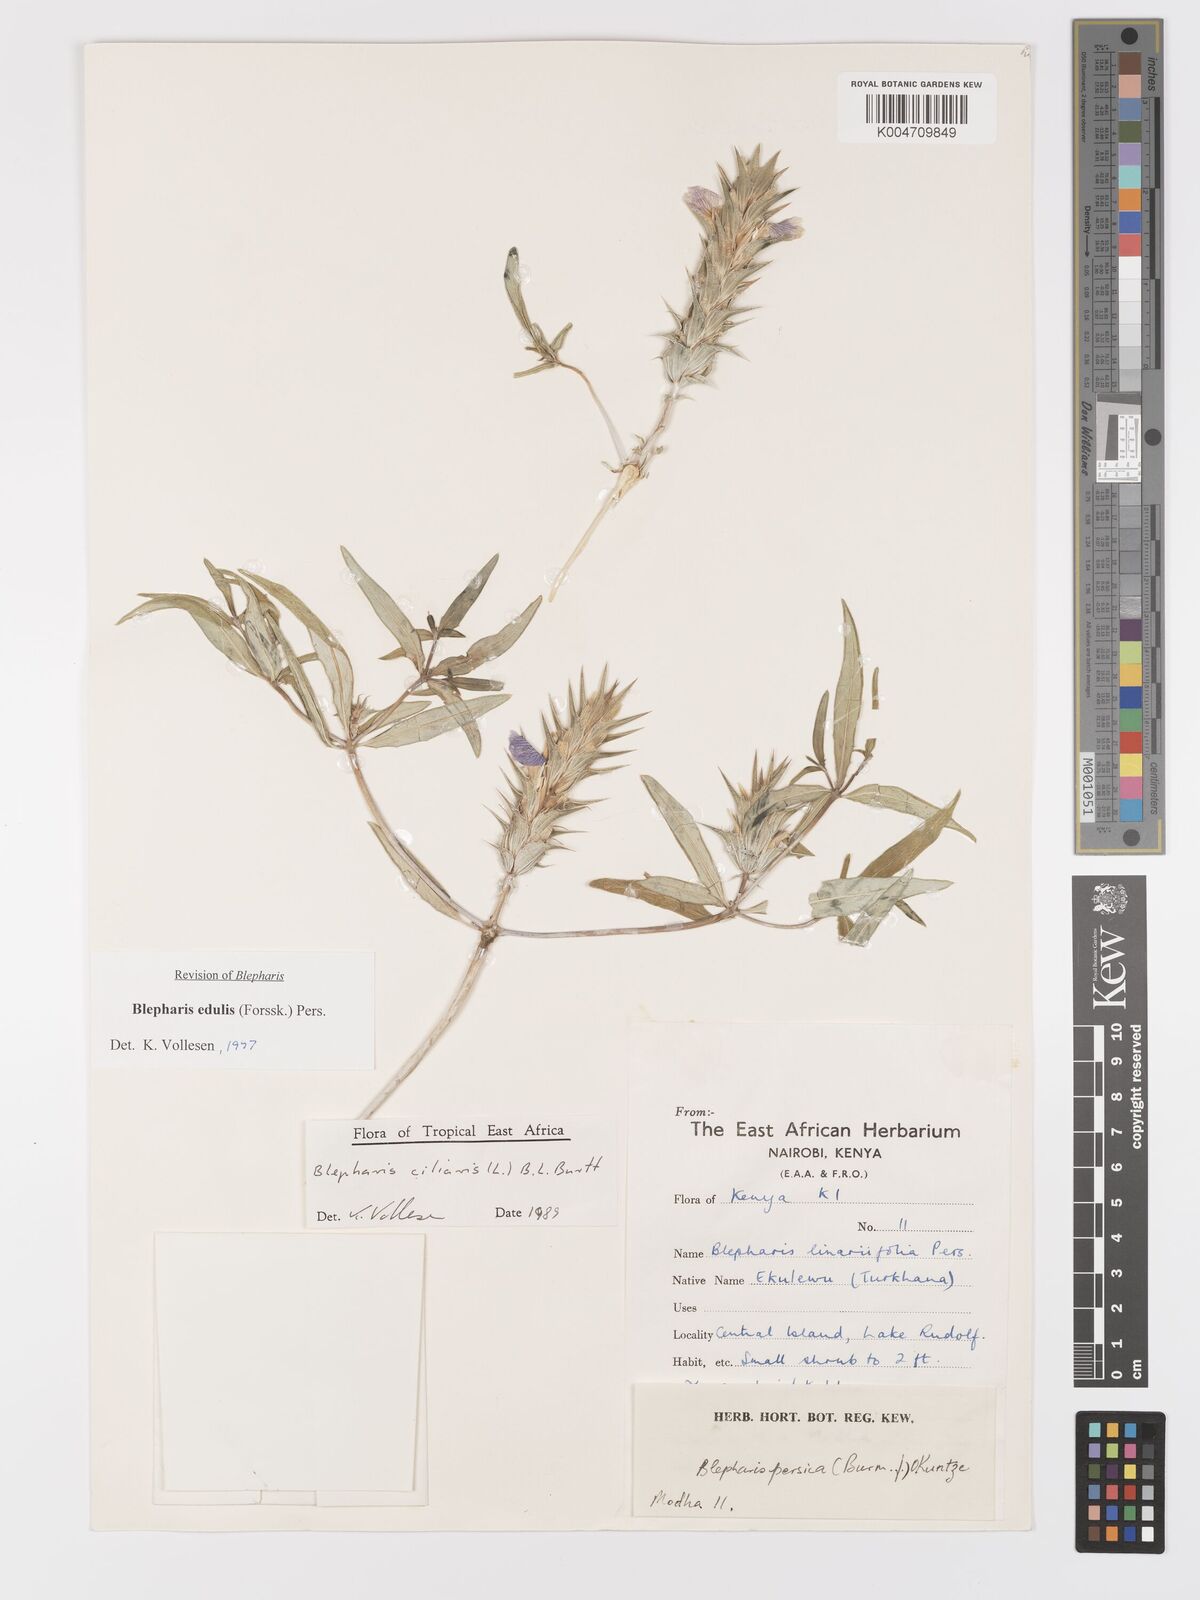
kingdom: Plantae
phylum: Tracheophyta
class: Magnoliopsida
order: Lamiales
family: Acanthaceae
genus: Blepharis
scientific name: Blepharis edulis
